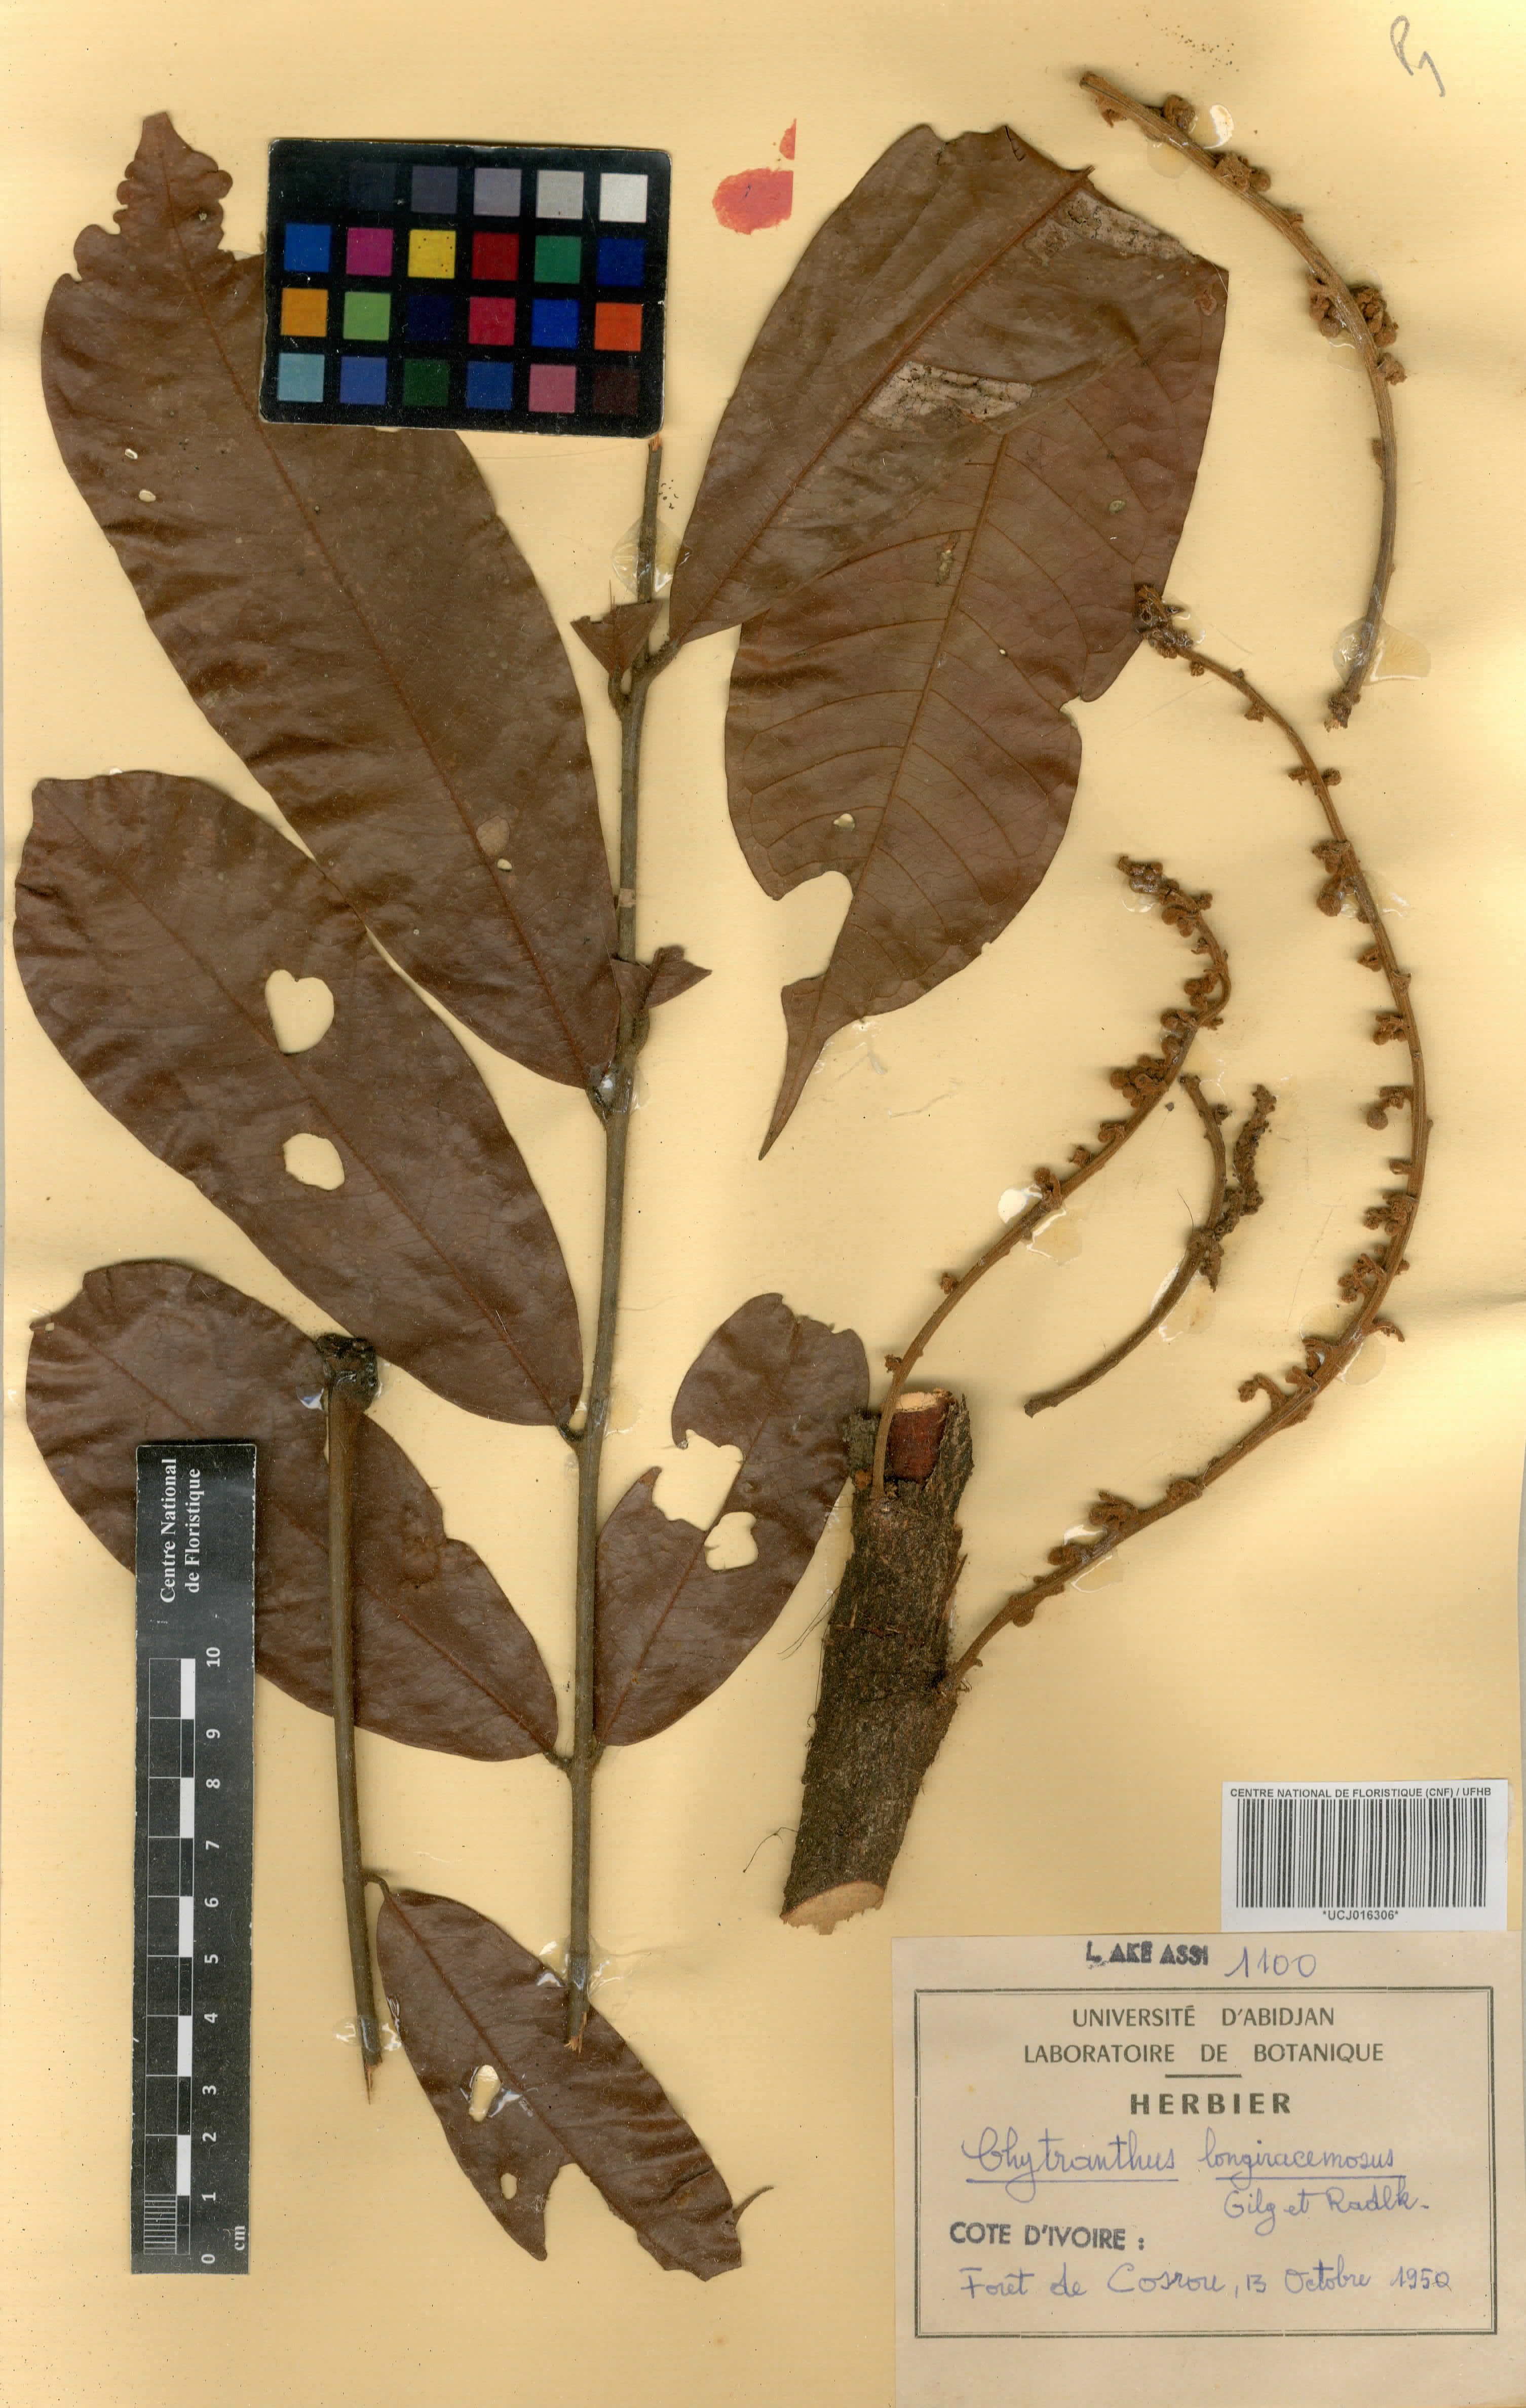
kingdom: Plantae
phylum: Tracheophyta
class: Magnoliopsida
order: Sapindales
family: Sapindaceae
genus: Chytranthus
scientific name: Chytranthus carneus
